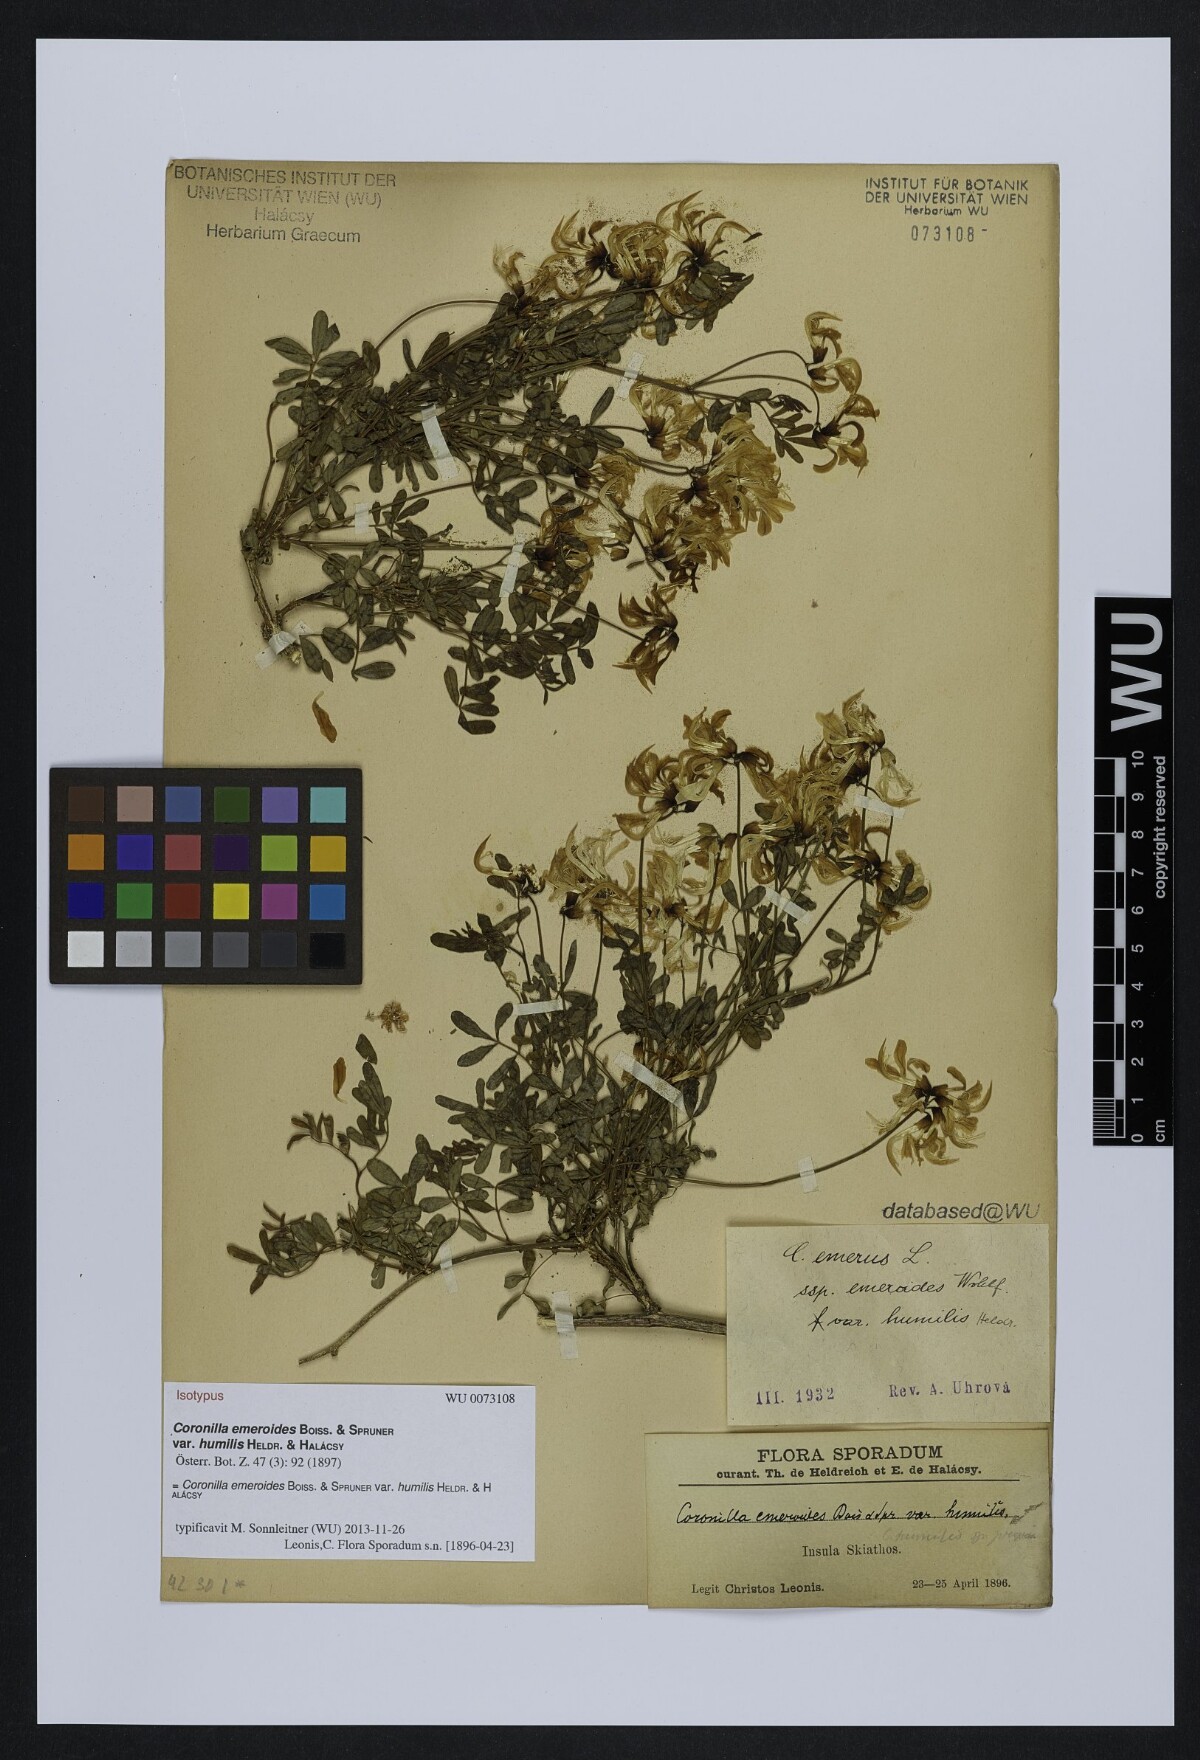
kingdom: Plantae
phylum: Tracheophyta
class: Magnoliopsida
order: Fabales
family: Fabaceae
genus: Hippocrepis
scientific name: Hippocrepis emerus
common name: Scorpion senna
